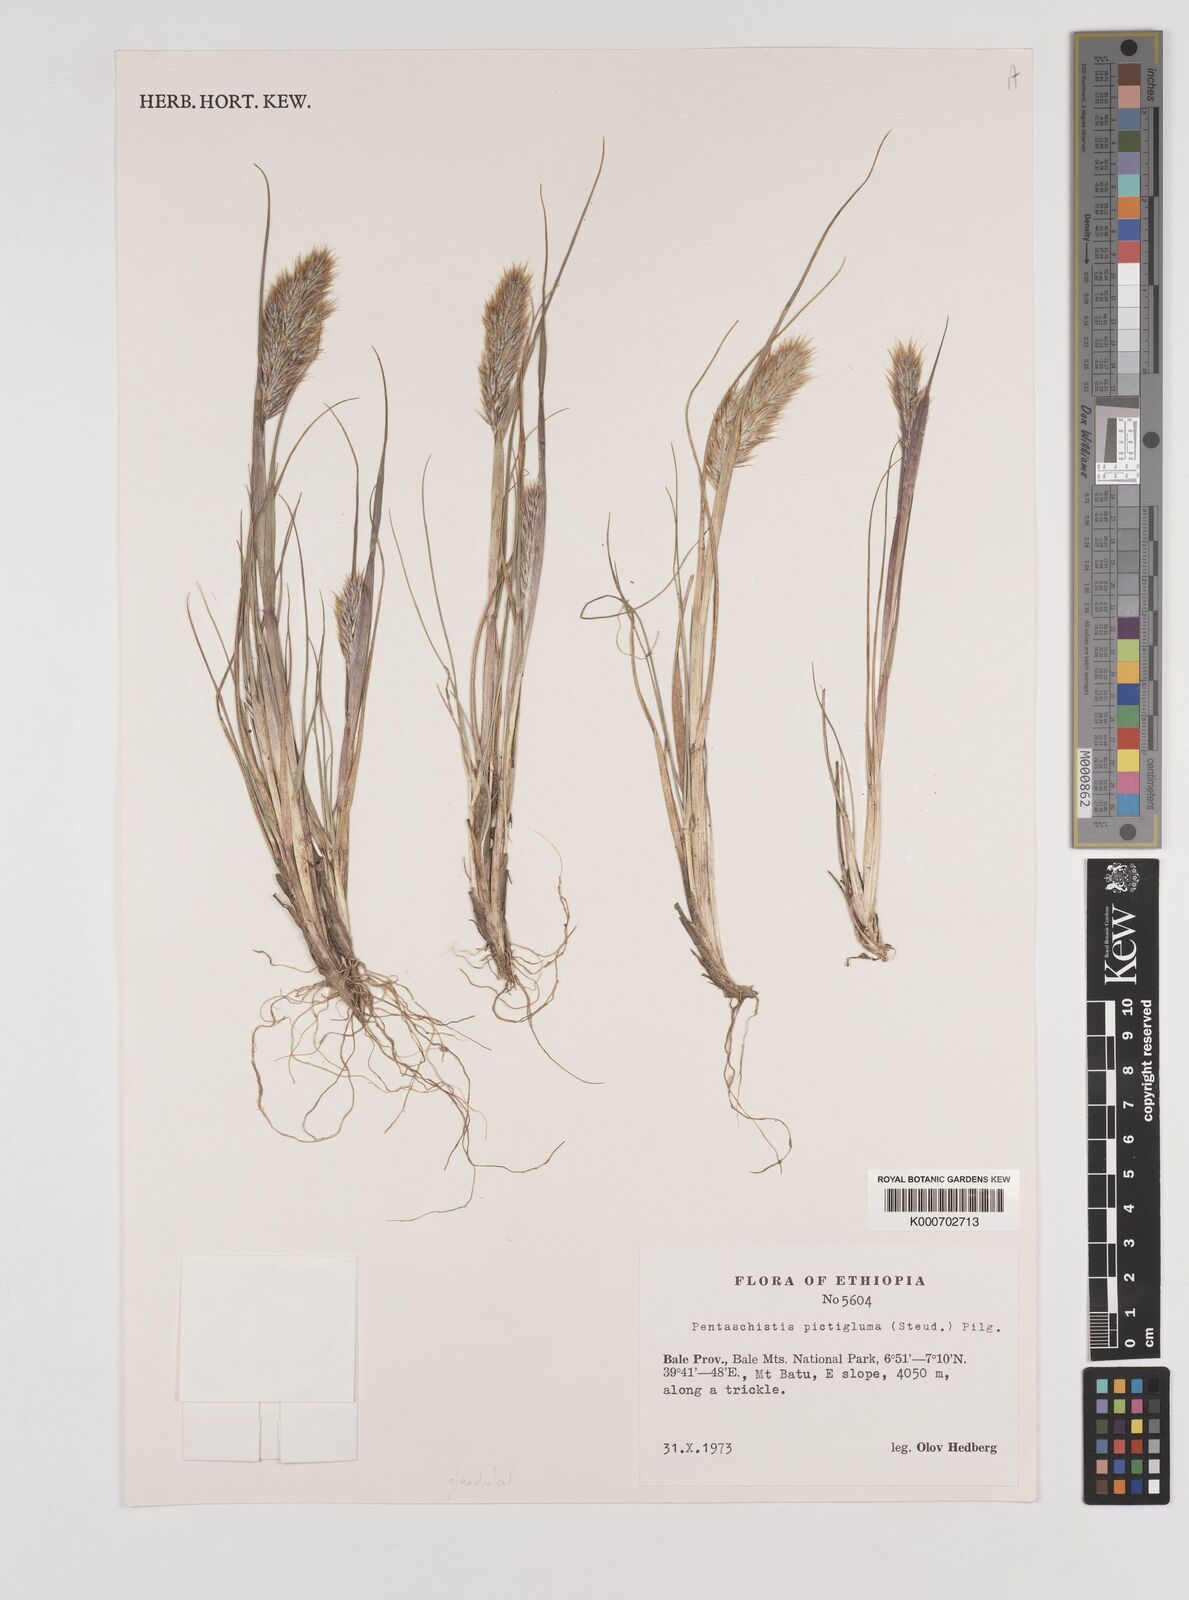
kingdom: Plantae
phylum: Tracheophyta
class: Liliopsida
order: Poales
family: Poaceae
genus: Pentameris
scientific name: Pentameris pictigluma
